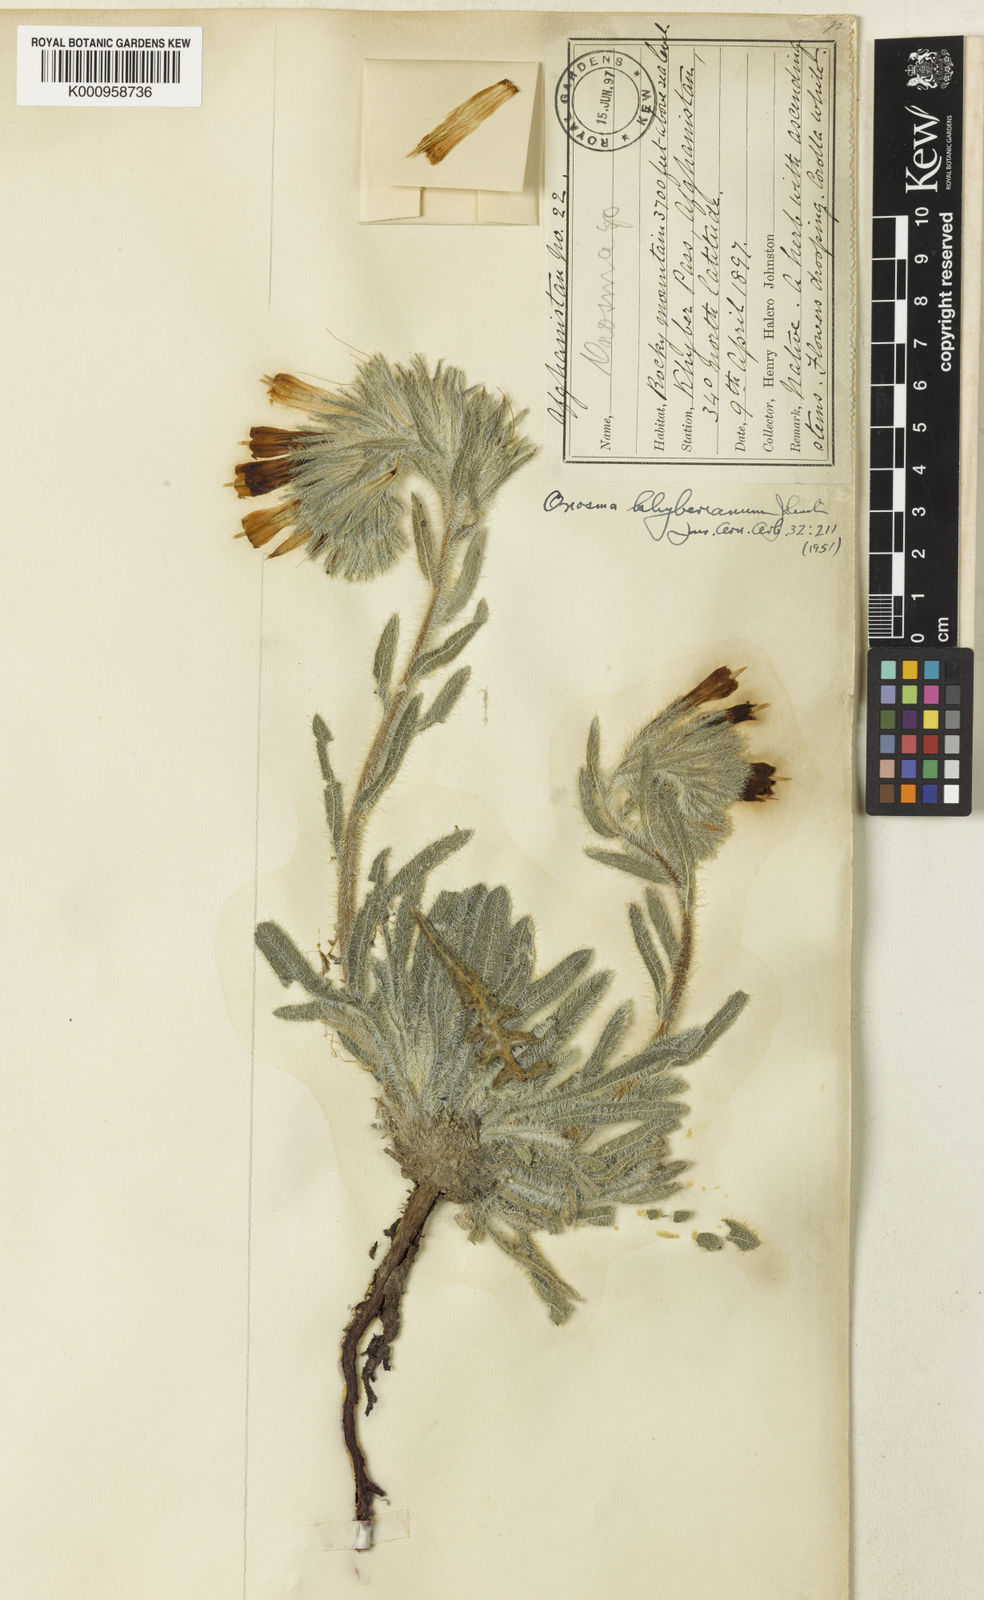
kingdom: Plantae
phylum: Tracheophyta
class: Magnoliopsida
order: Boraginales
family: Boraginaceae
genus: Onosma
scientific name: Onosma khyberiana
